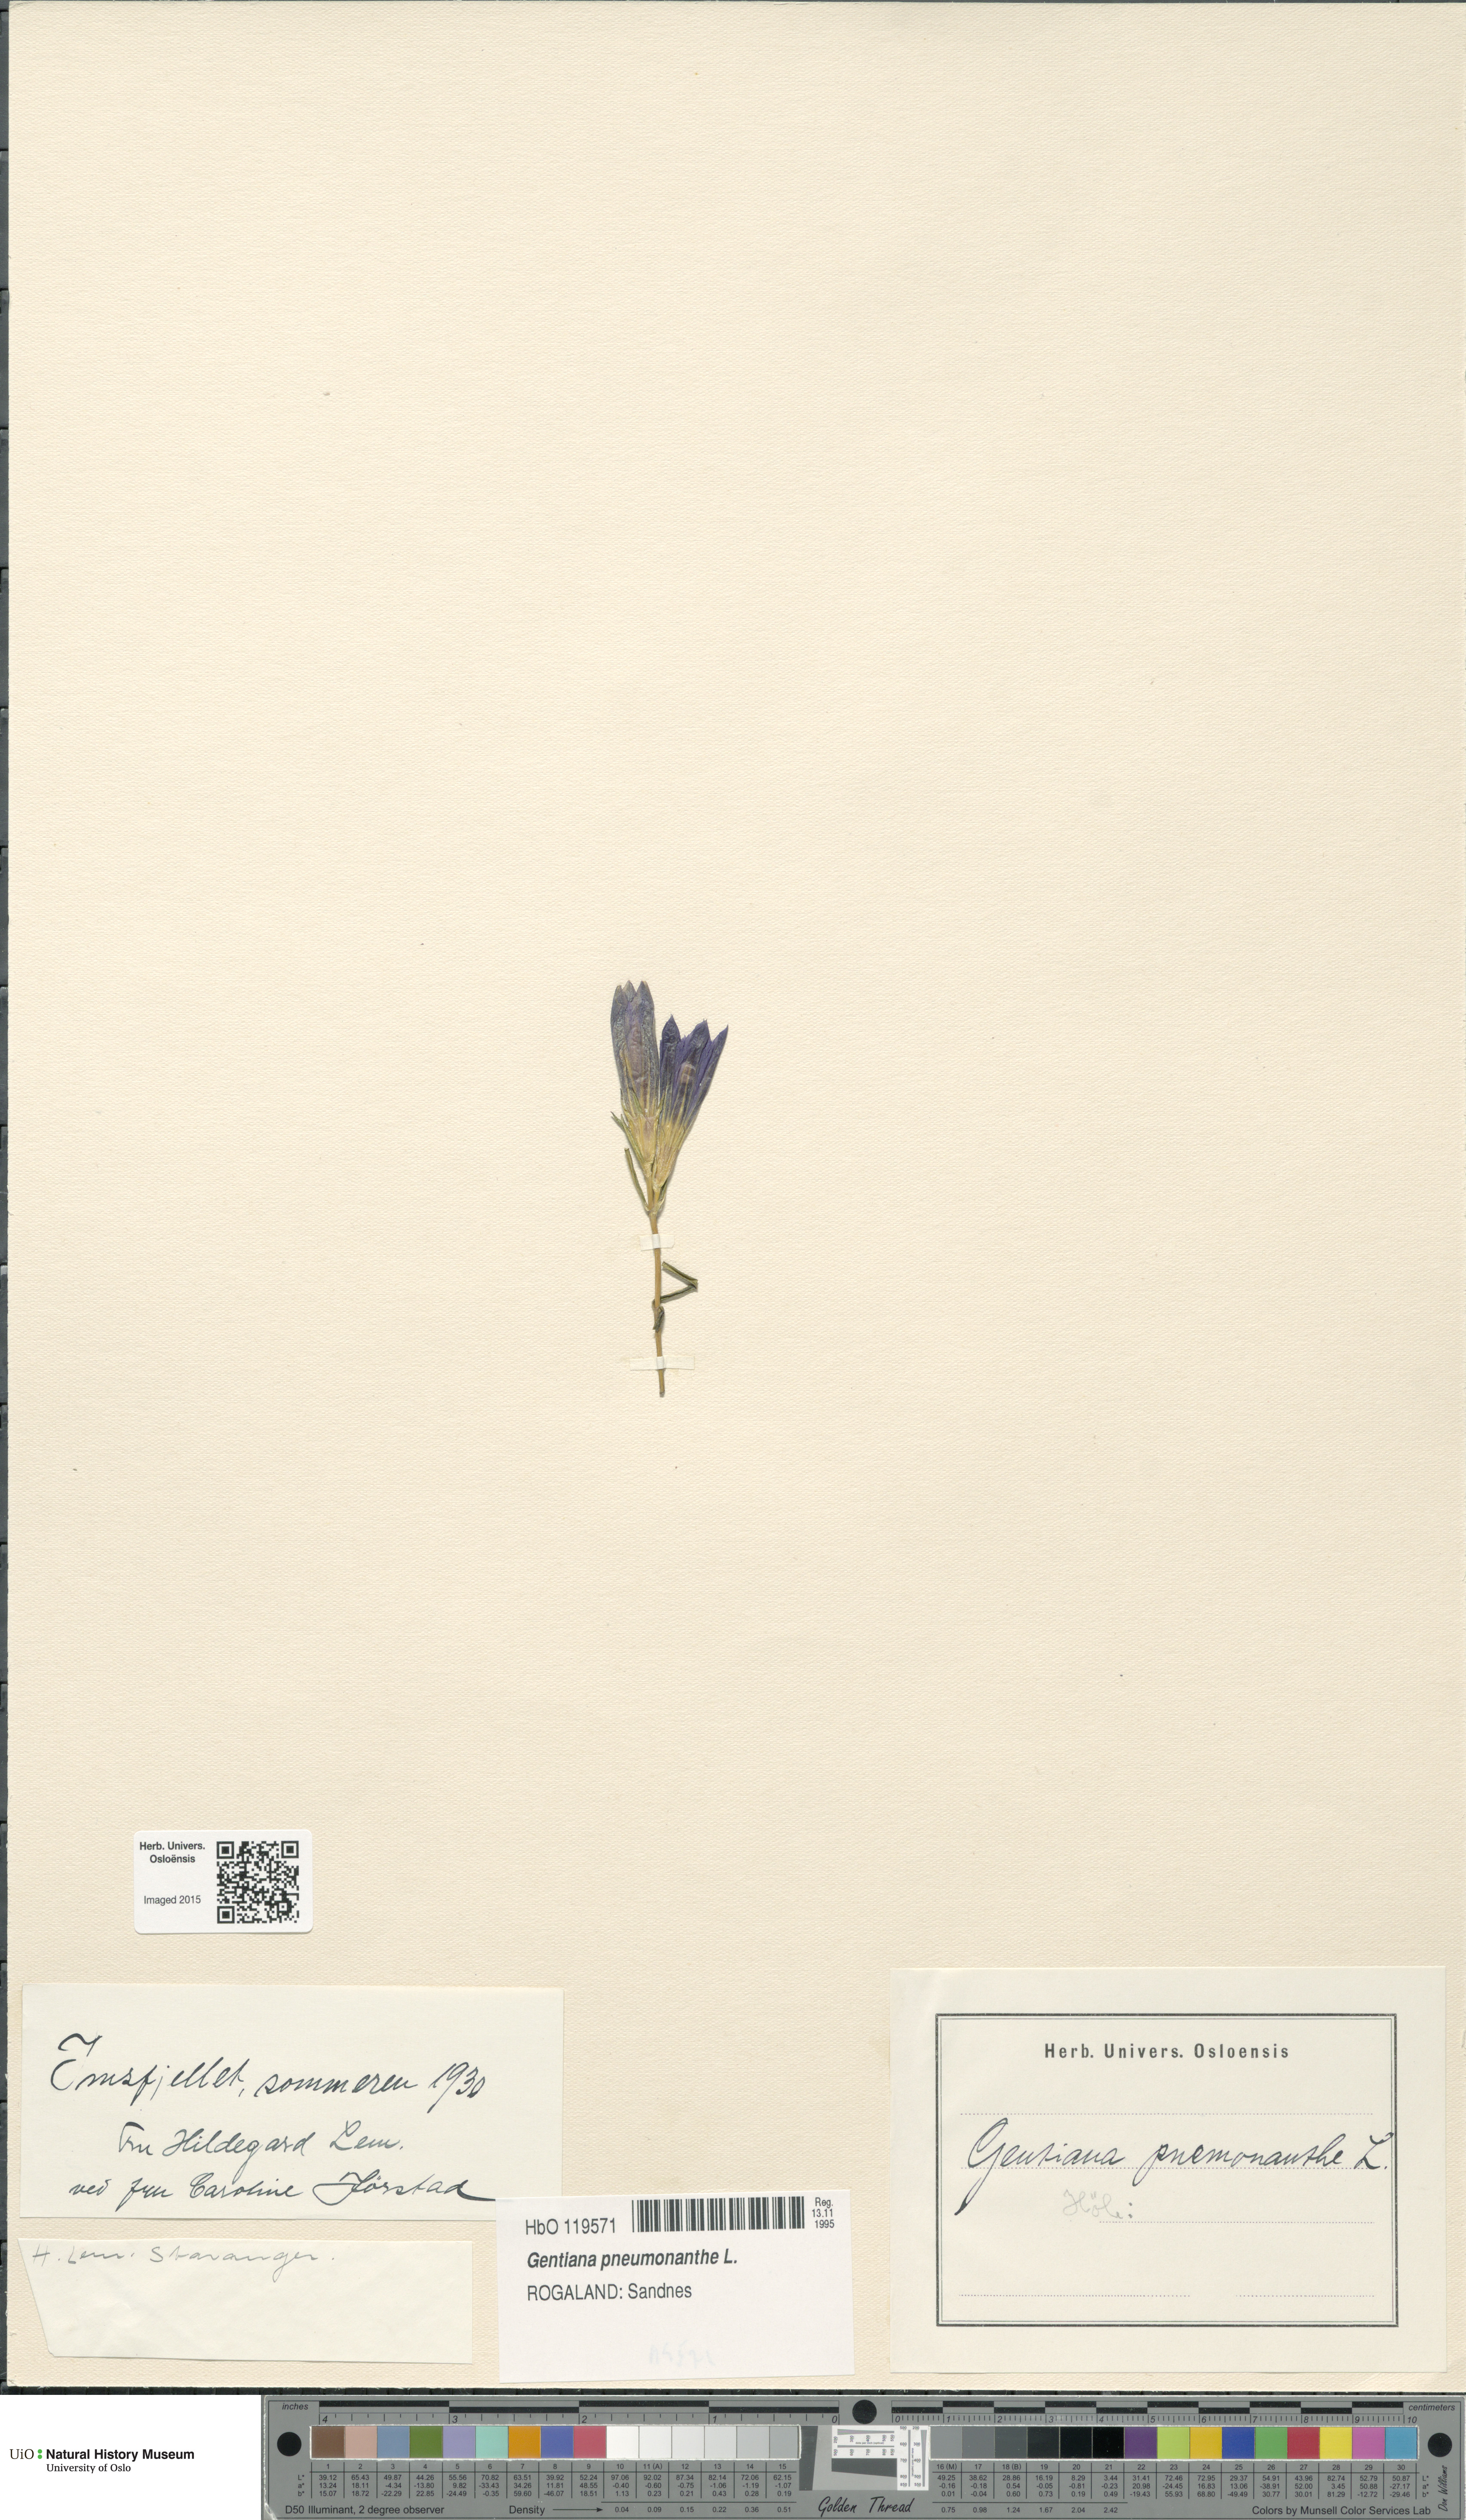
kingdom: Plantae
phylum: Tracheophyta
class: Magnoliopsida
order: Gentianales
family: Gentianaceae
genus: Gentiana
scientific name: Gentiana pneumonanthe
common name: Marsh gentian
